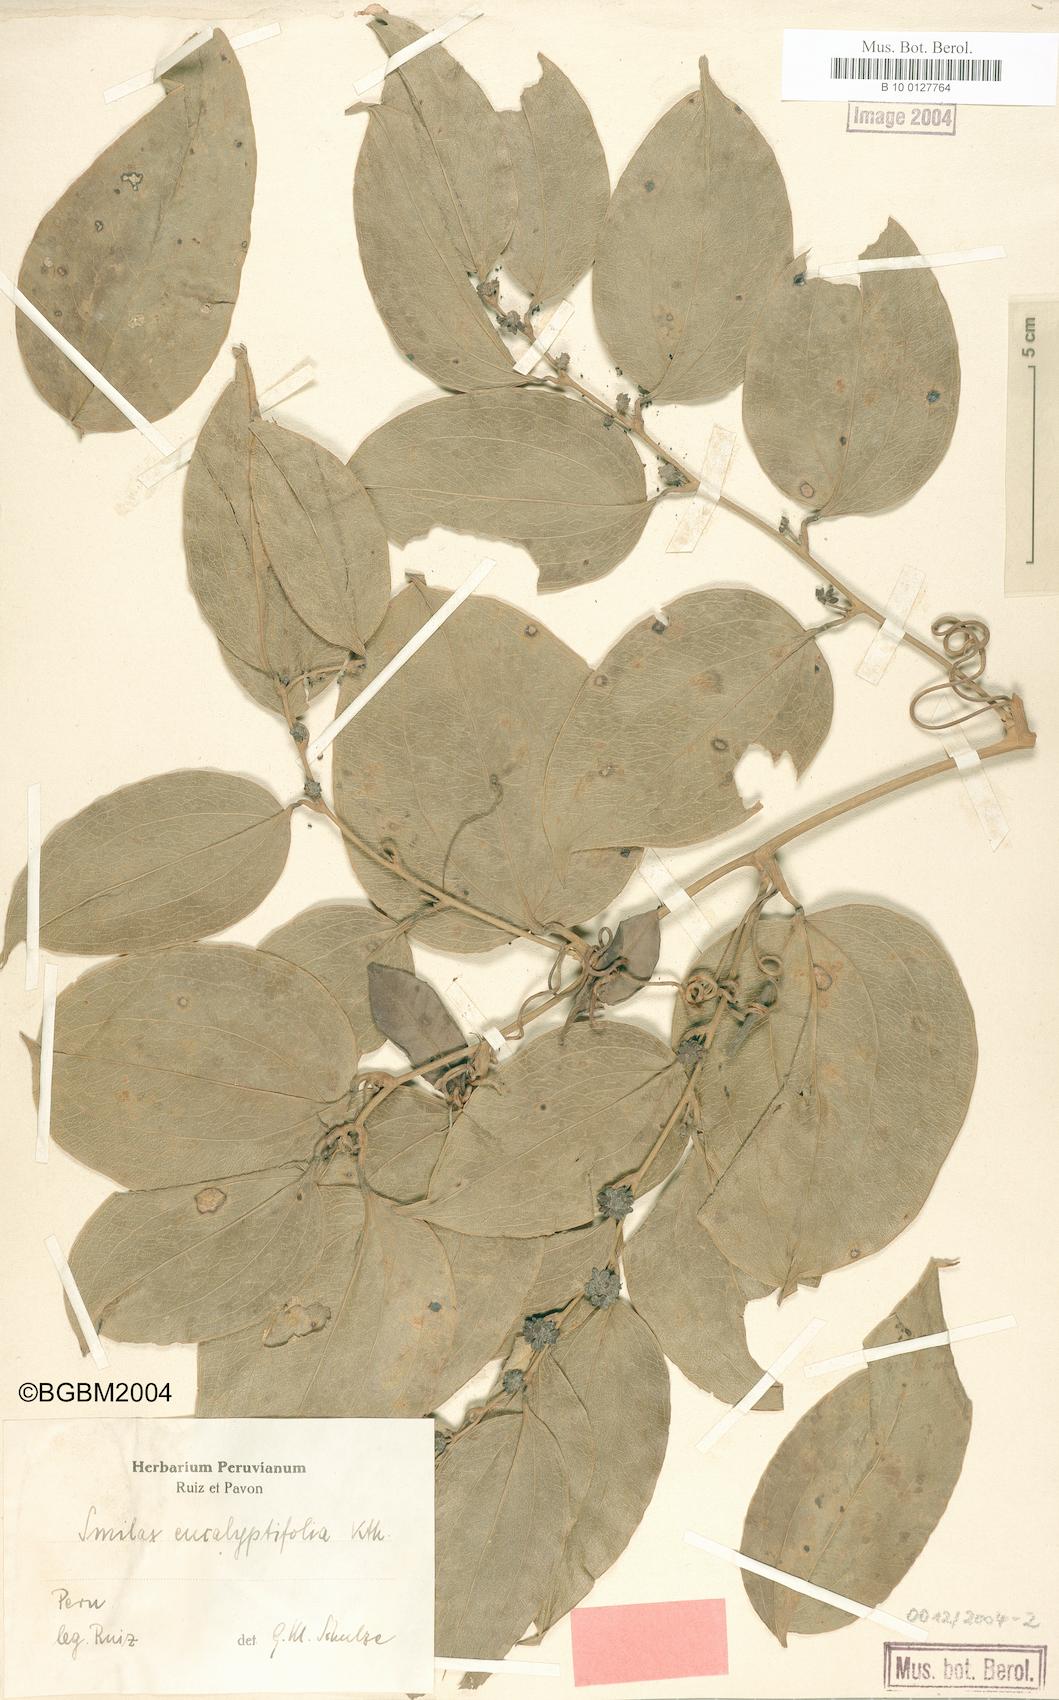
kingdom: Plantae
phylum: Tracheophyta
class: Liliopsida
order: Liliales
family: Smilacaceae
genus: Smilax
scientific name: Smilax domingensis
